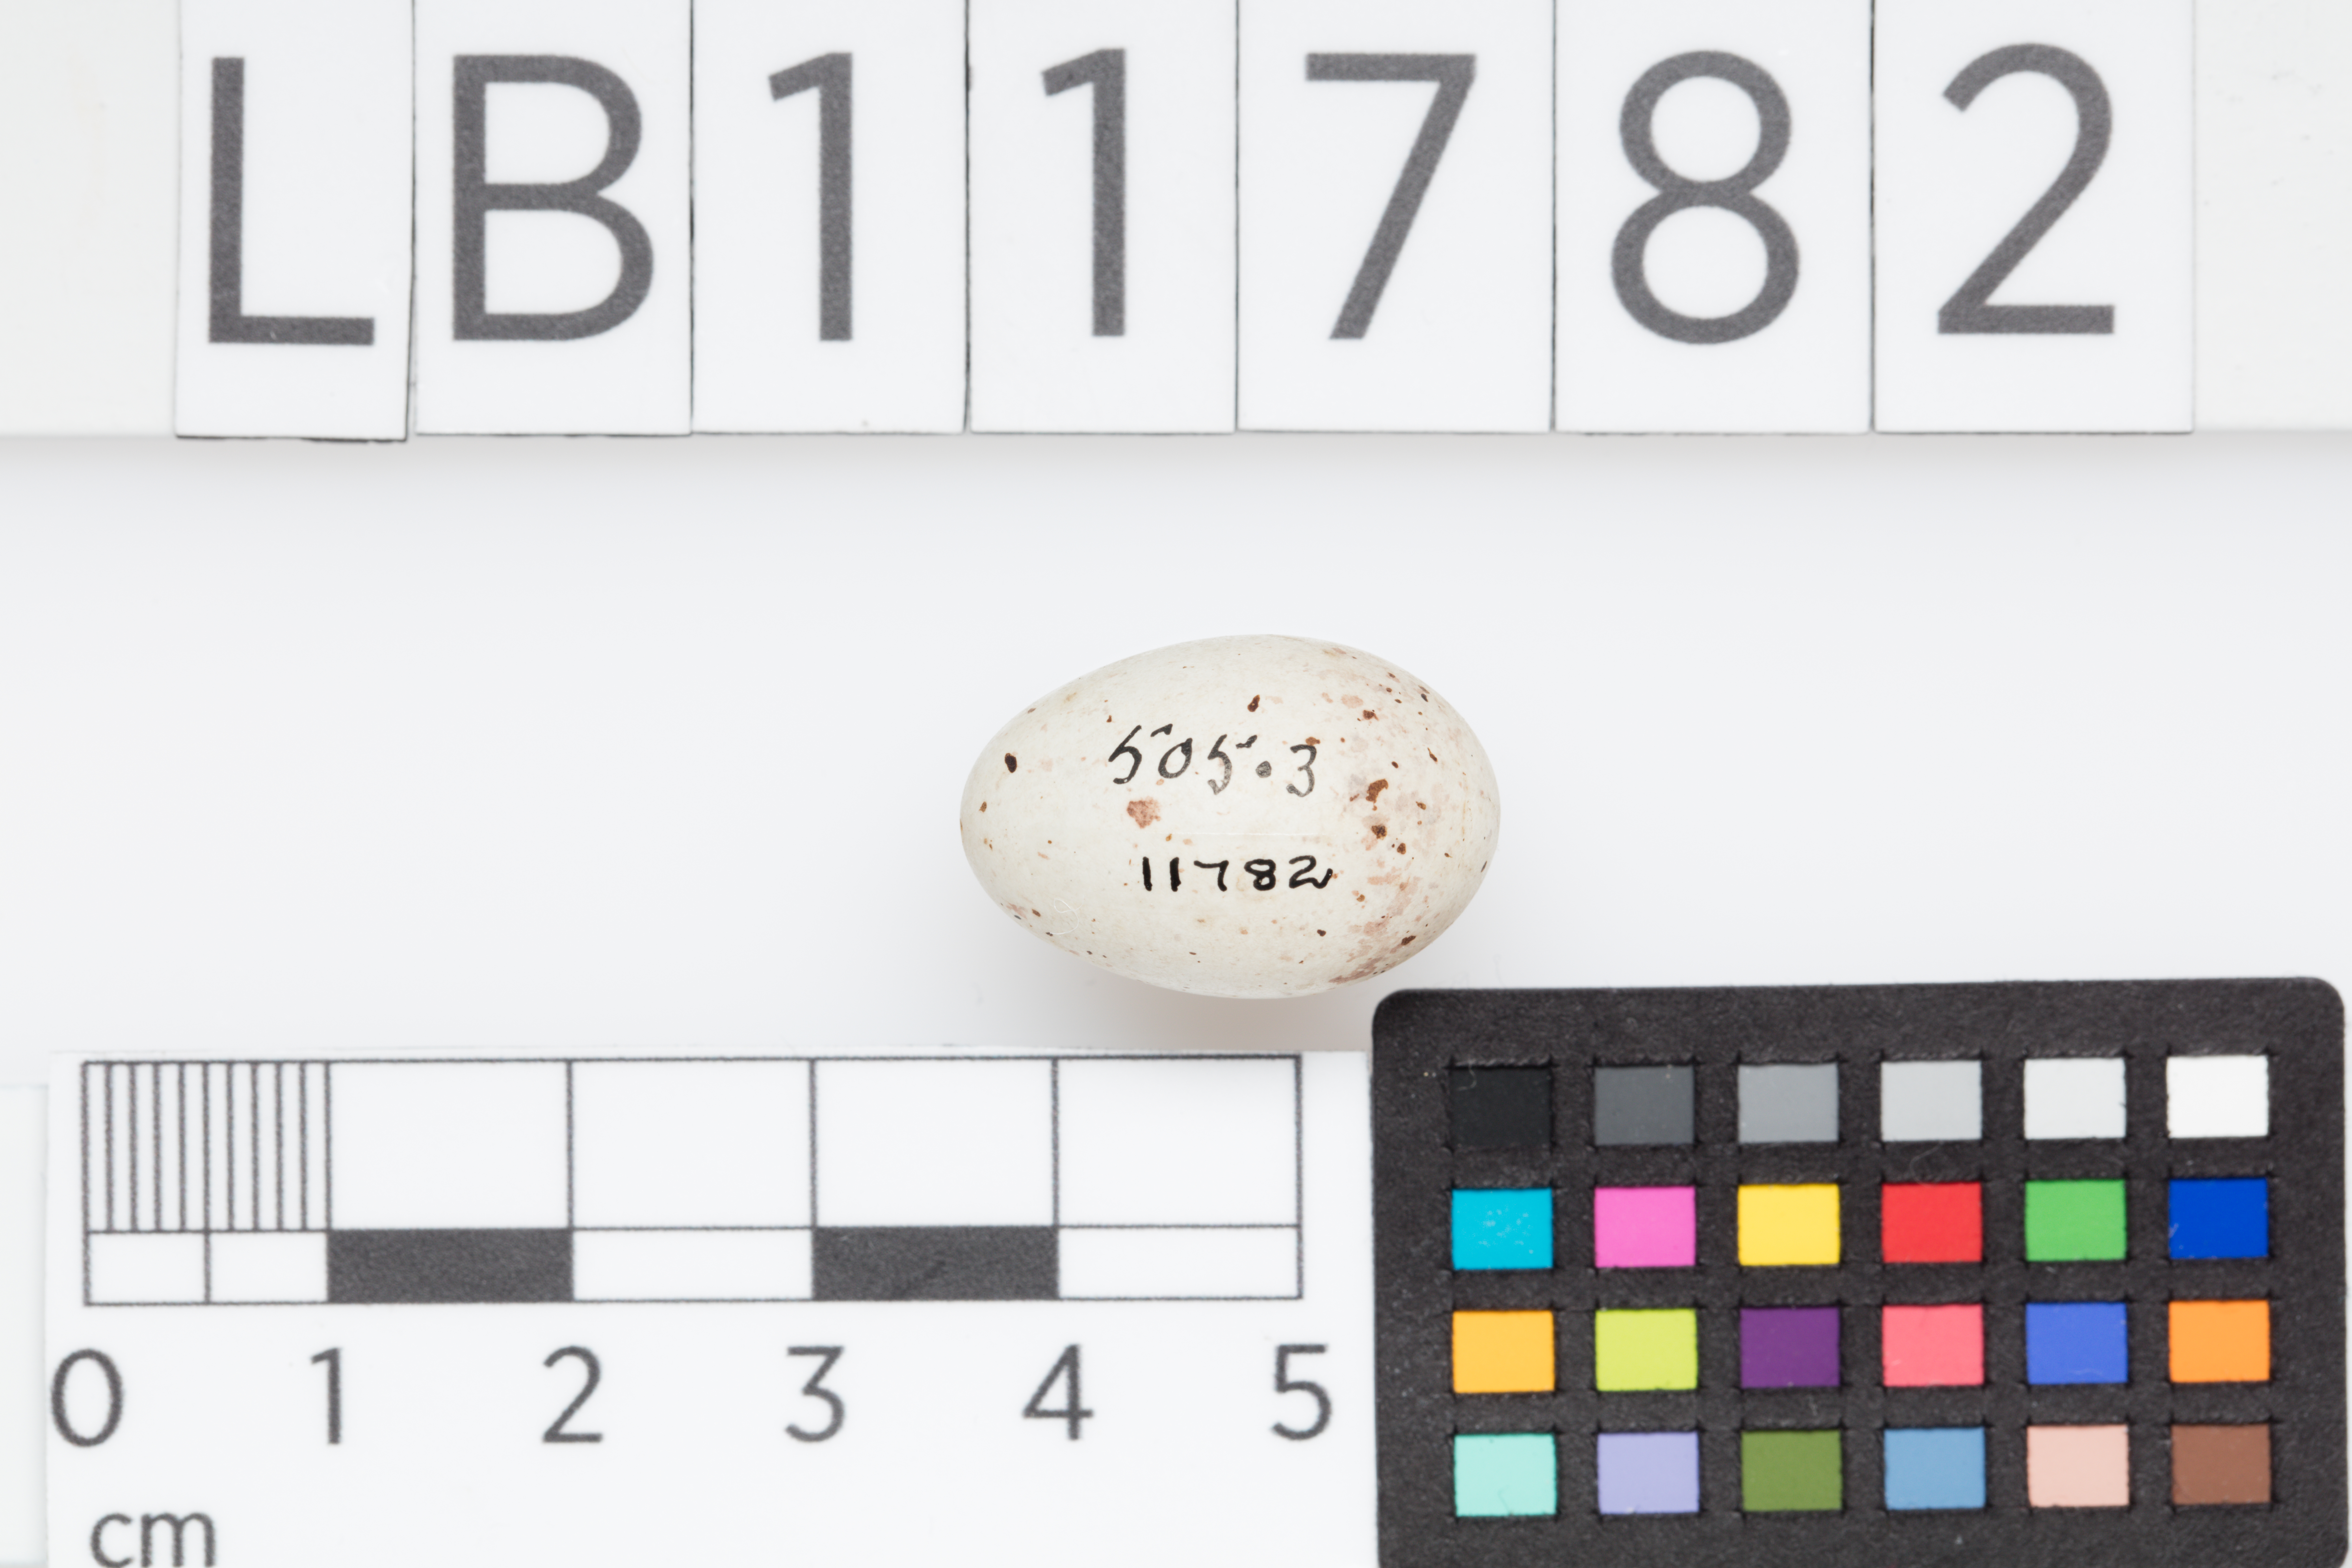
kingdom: Plantae
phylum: Tracheophyta
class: Liliopsida
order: Poales
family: Poaceae
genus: Chloris
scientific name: Chloris chloris
